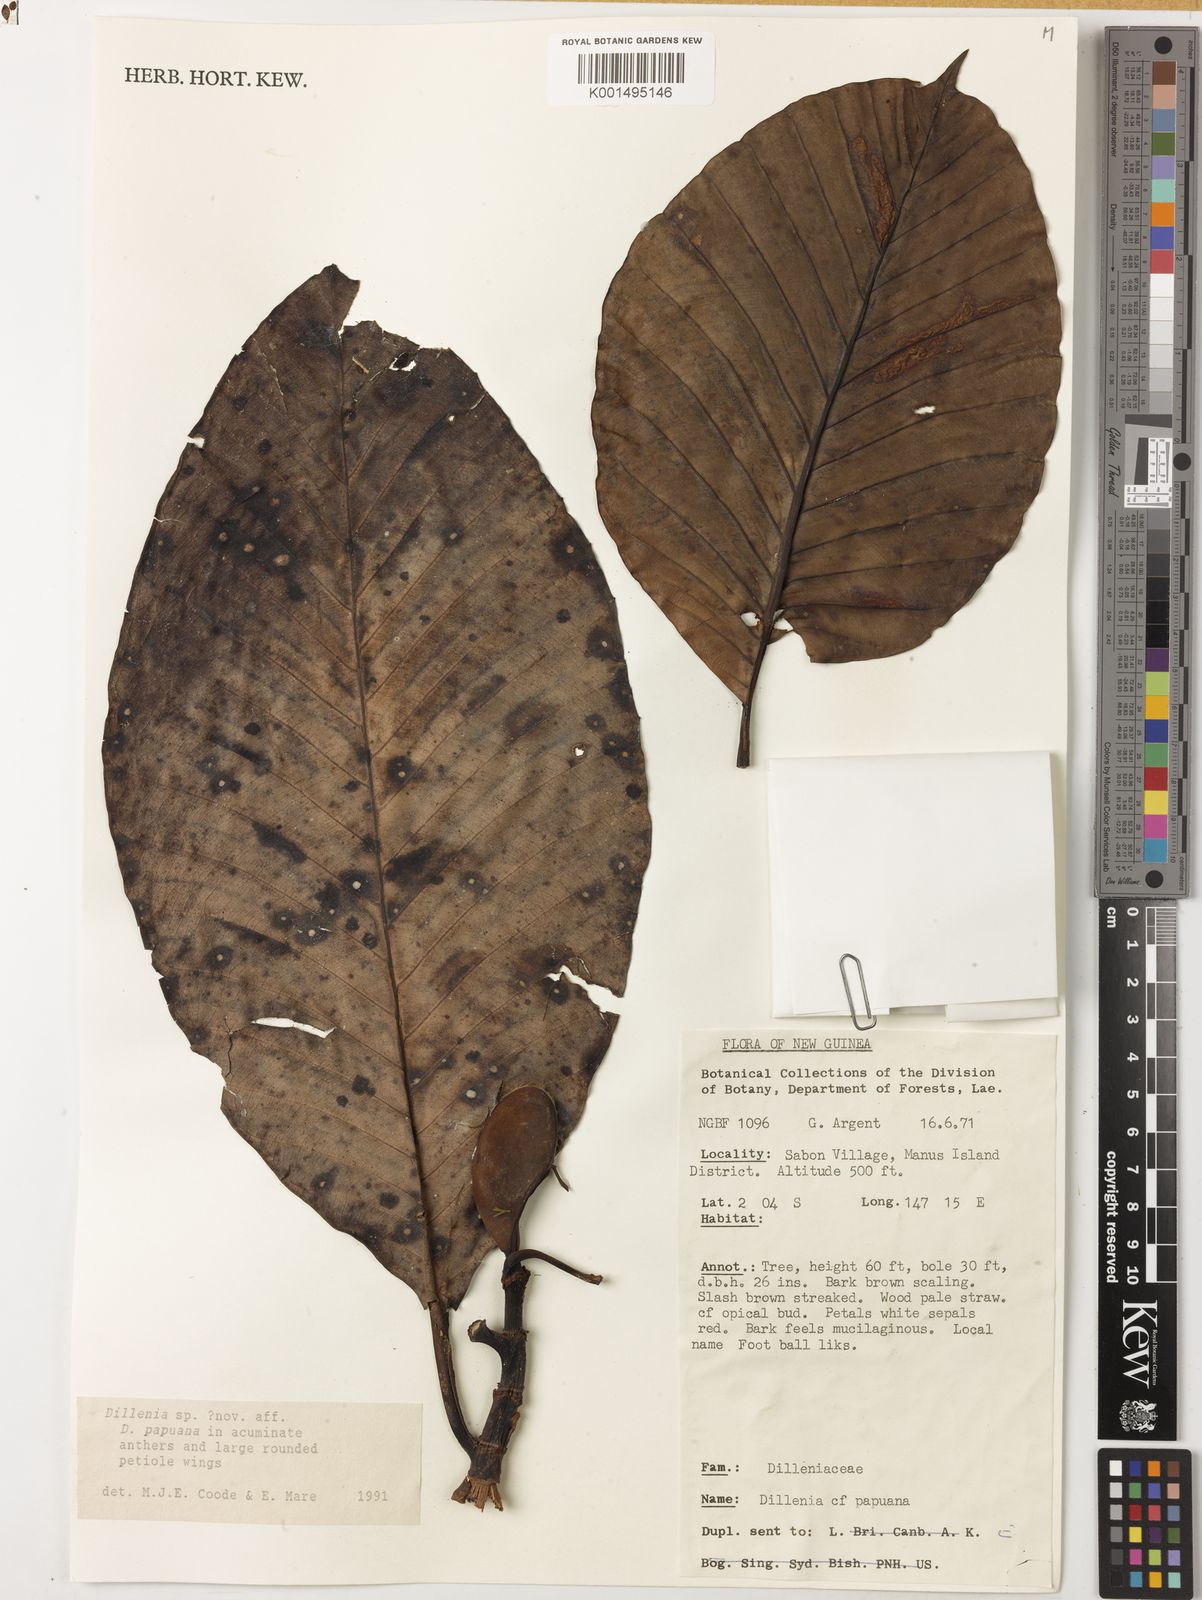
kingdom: Plantae
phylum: Tracheophyta
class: Magnoliopsida
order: Dilleniales
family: Dilleniaceae
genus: Dillenia
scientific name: Dillenia
